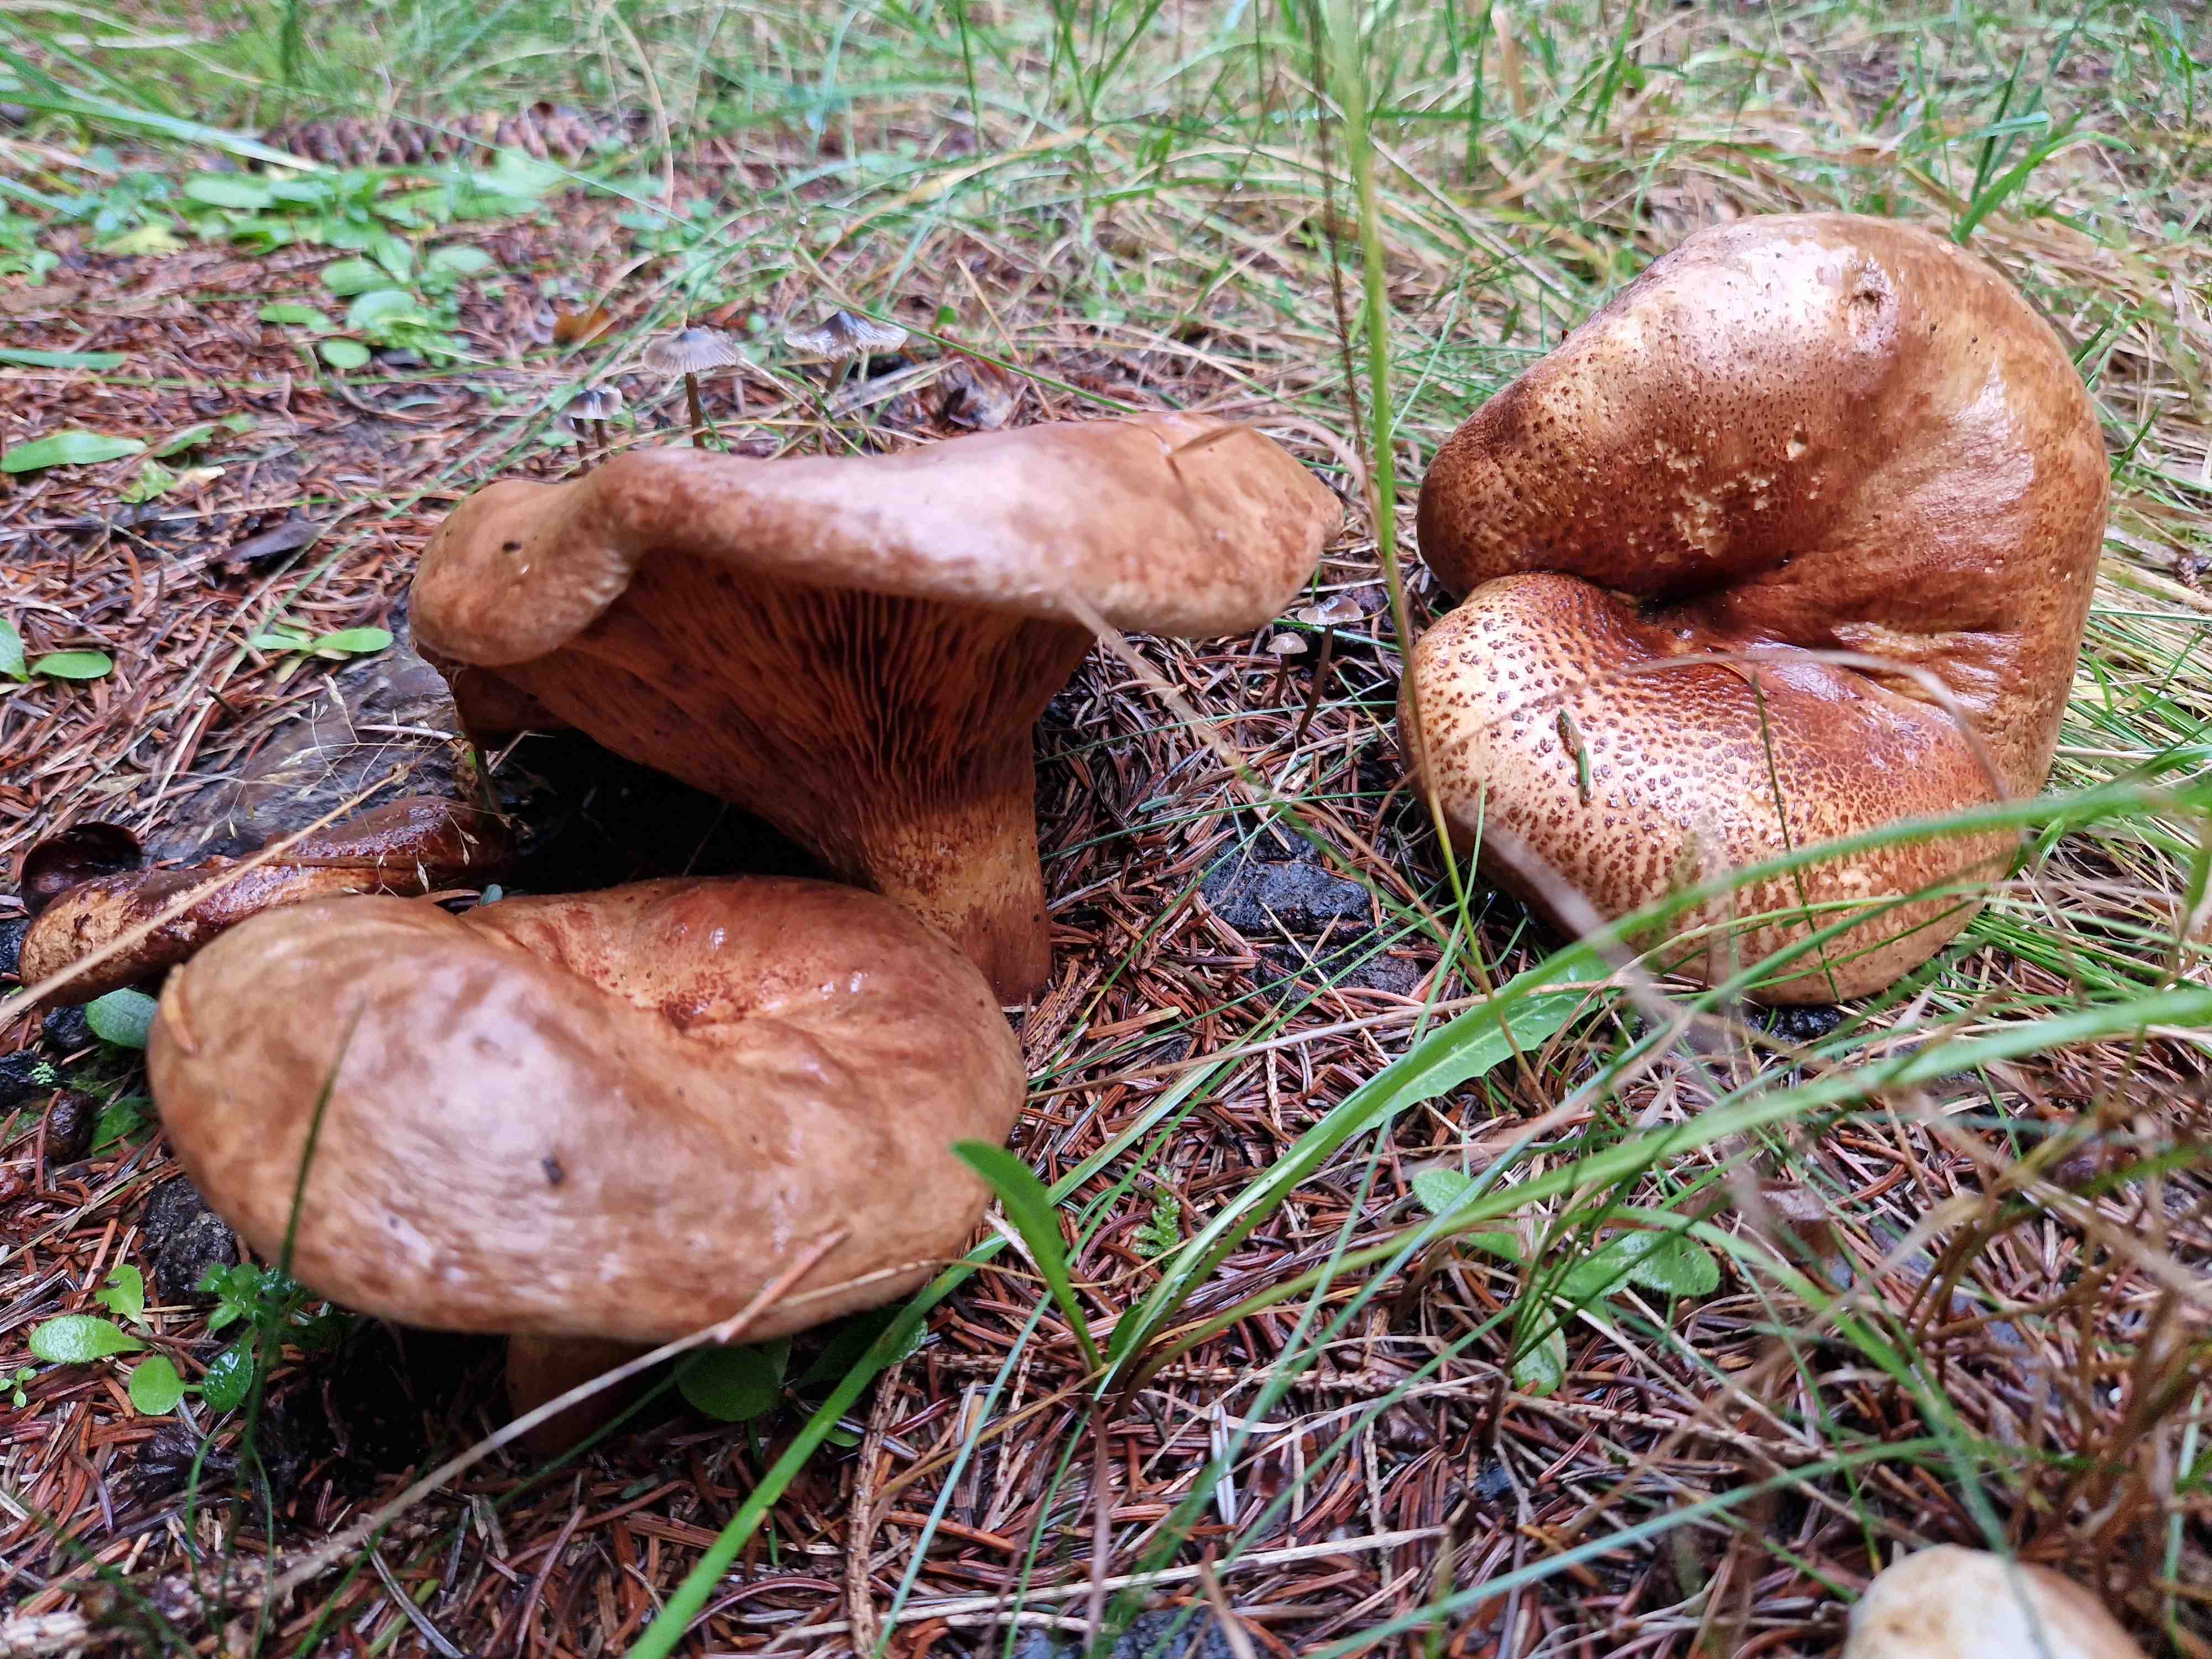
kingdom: Fungi
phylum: Basidiomycota
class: Agaricomycetes
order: Boletales
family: Paxillaceae
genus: Paxillus
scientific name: Paxillus involutus
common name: almindelig netbladhat
